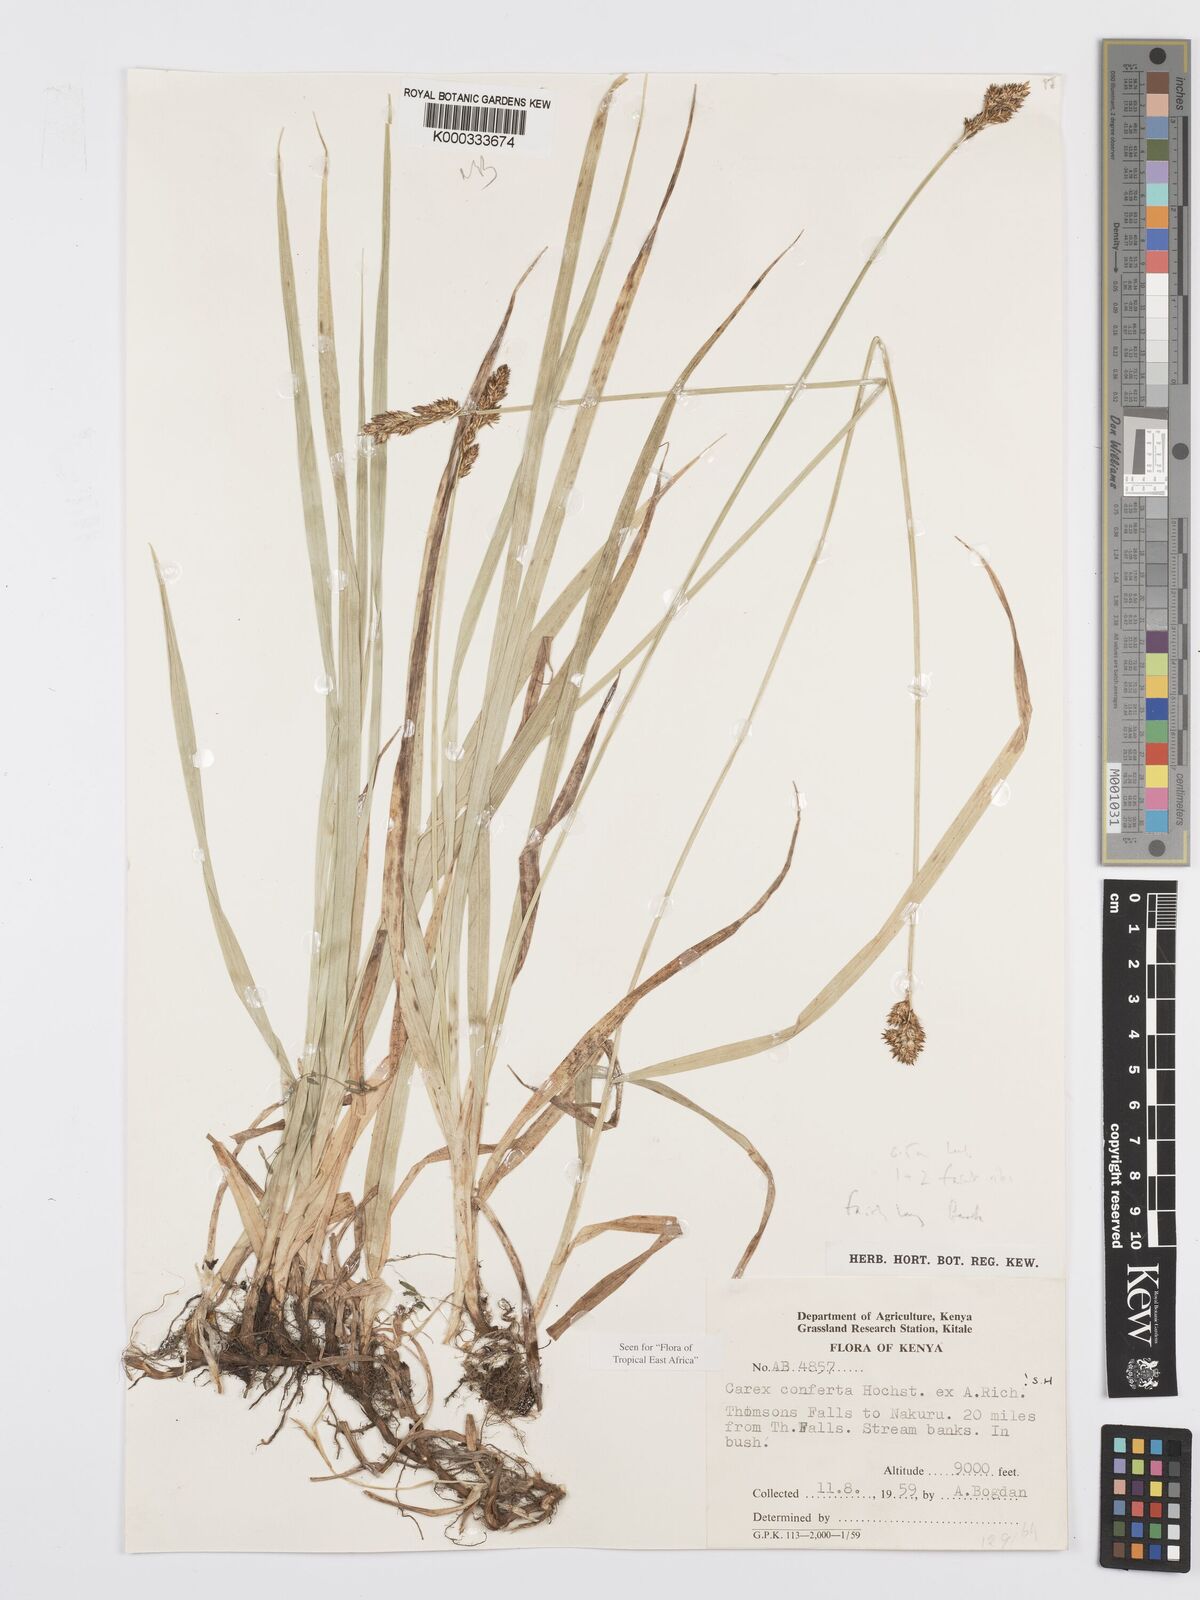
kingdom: Plantae
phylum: Tracheophyta
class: Liliopsida
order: Poales
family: Cyperaceae
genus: Carex
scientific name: Carex conferta
